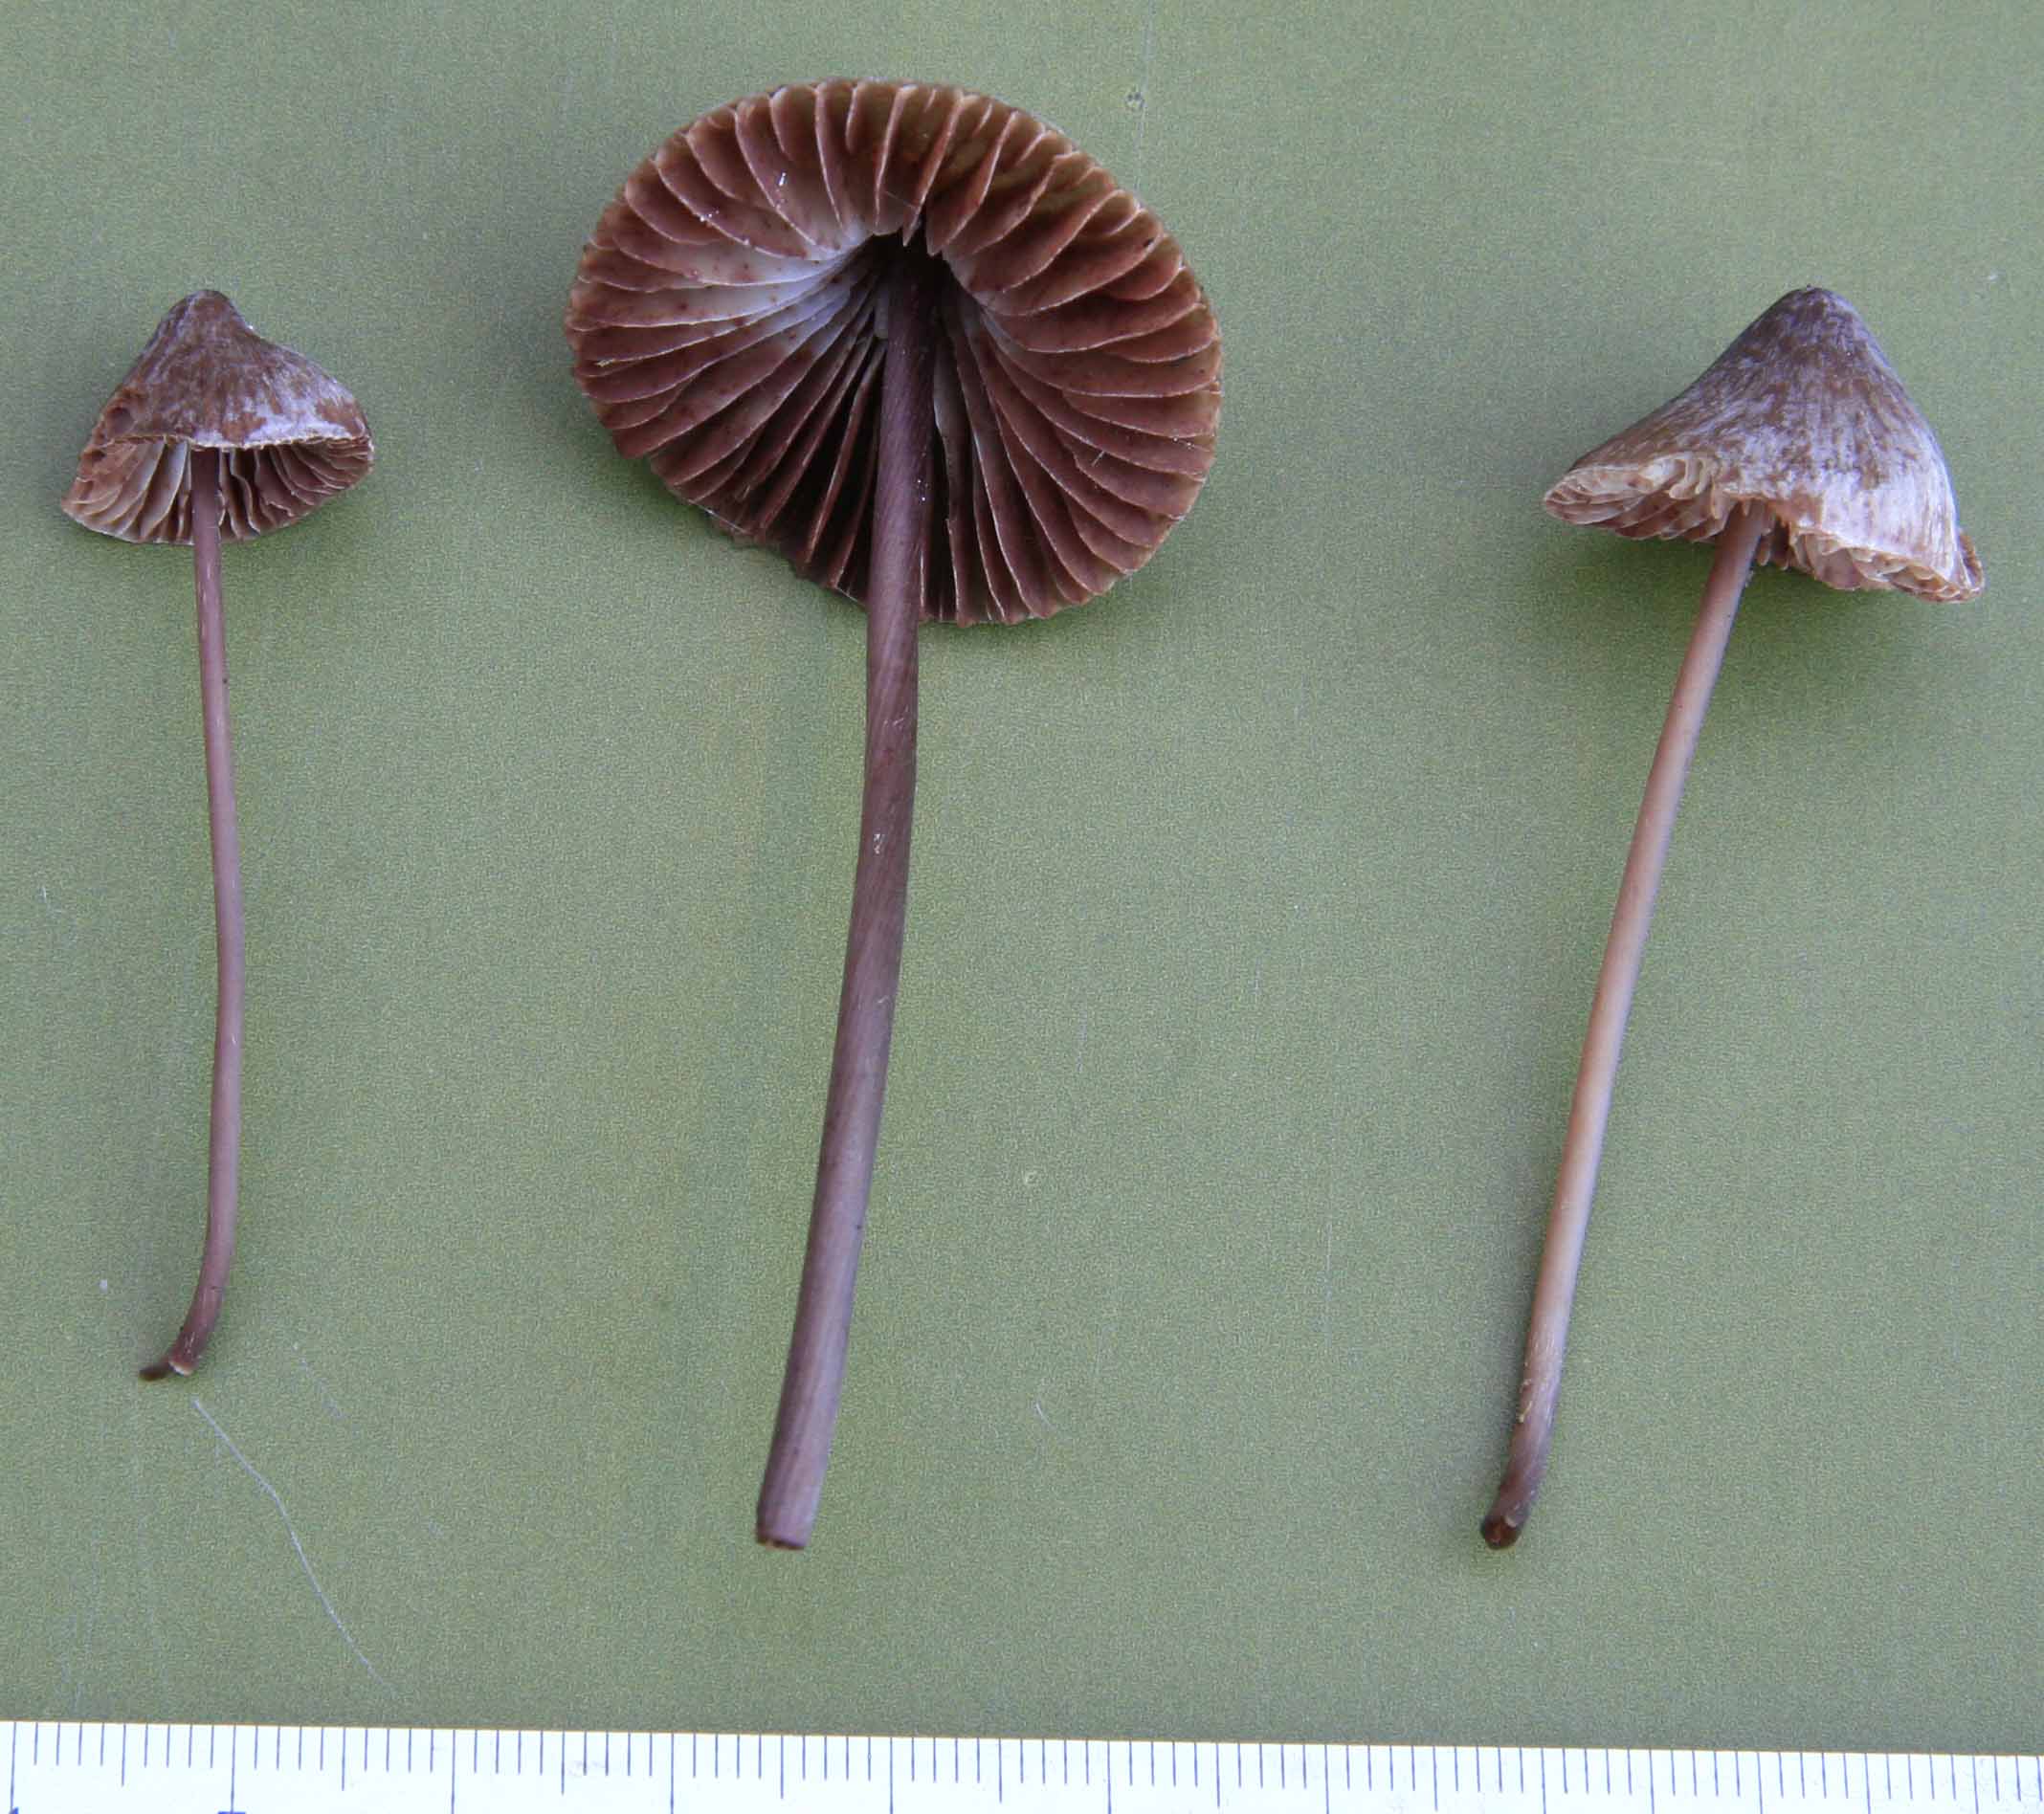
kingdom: Fungi
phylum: Basidiomycota
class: Agaricomycetes
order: Agaricales
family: Mycenaceae
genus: Mycena
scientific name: Mycena polygramma
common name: mangestribet huesvamp
